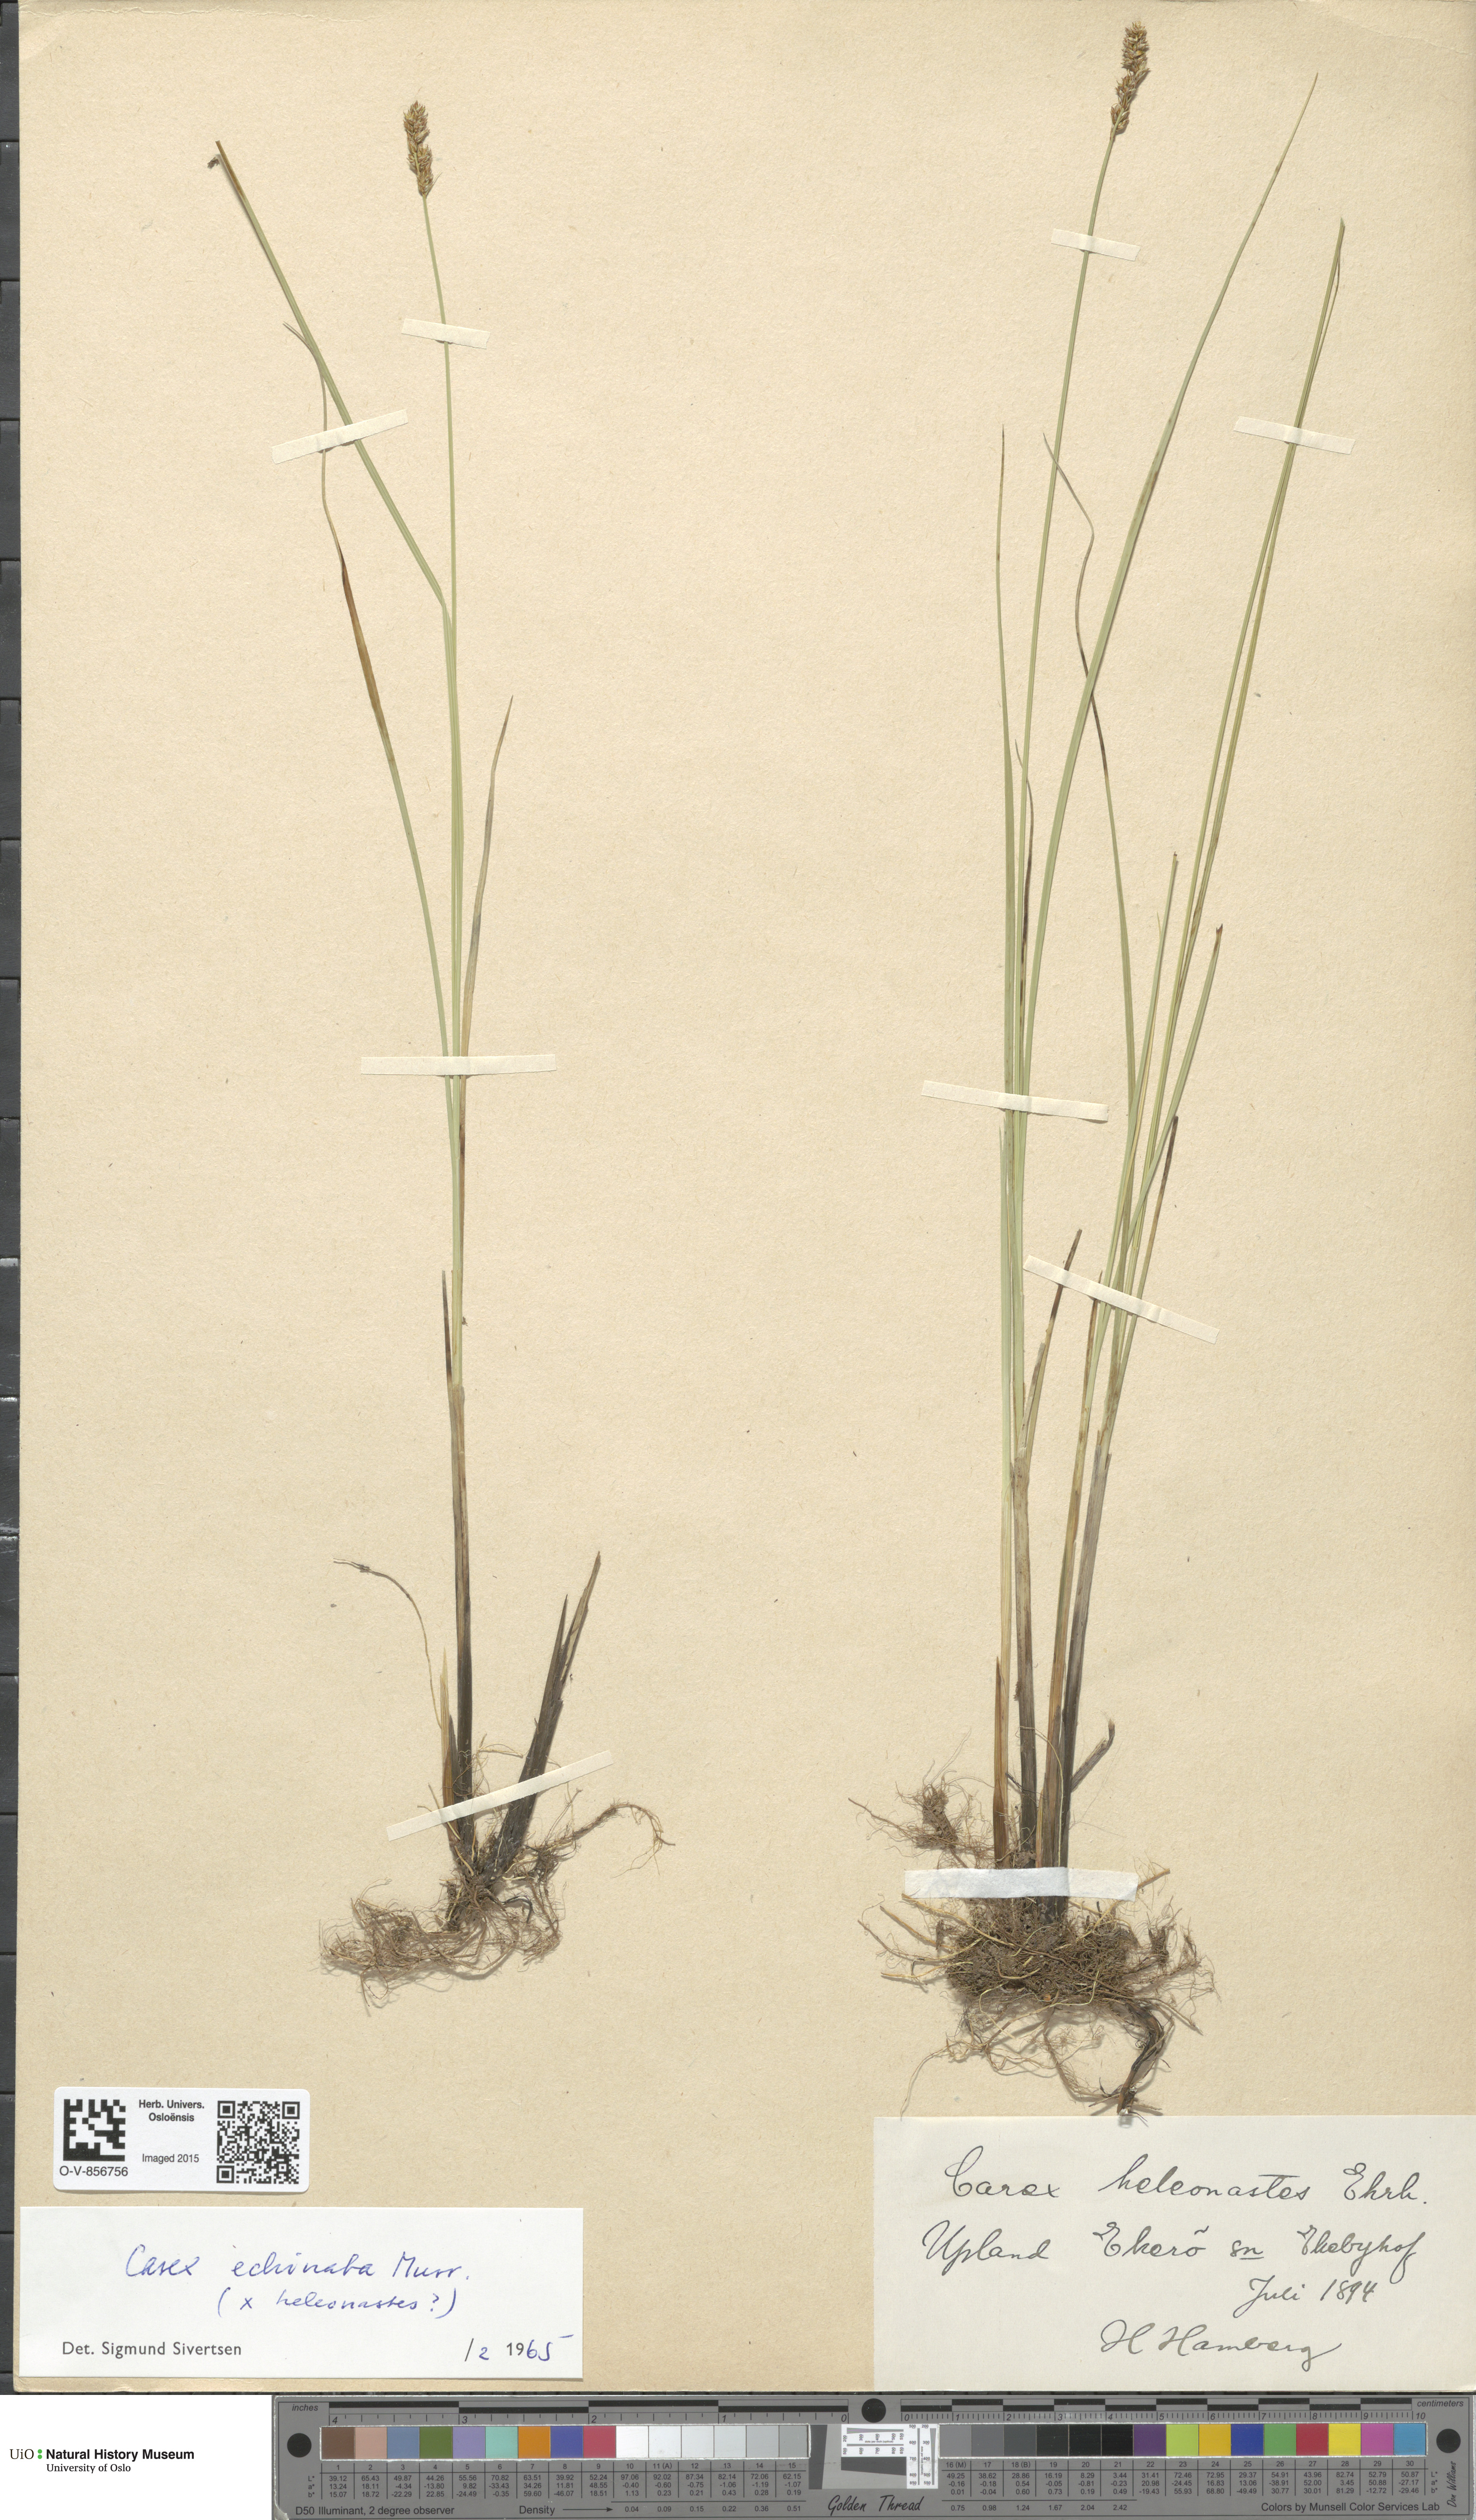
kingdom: Plantae
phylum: Tracheophyta
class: Liliopsida
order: Poales
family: Cyperaceae
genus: Carex
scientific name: Carex echinata
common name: Star sedge
